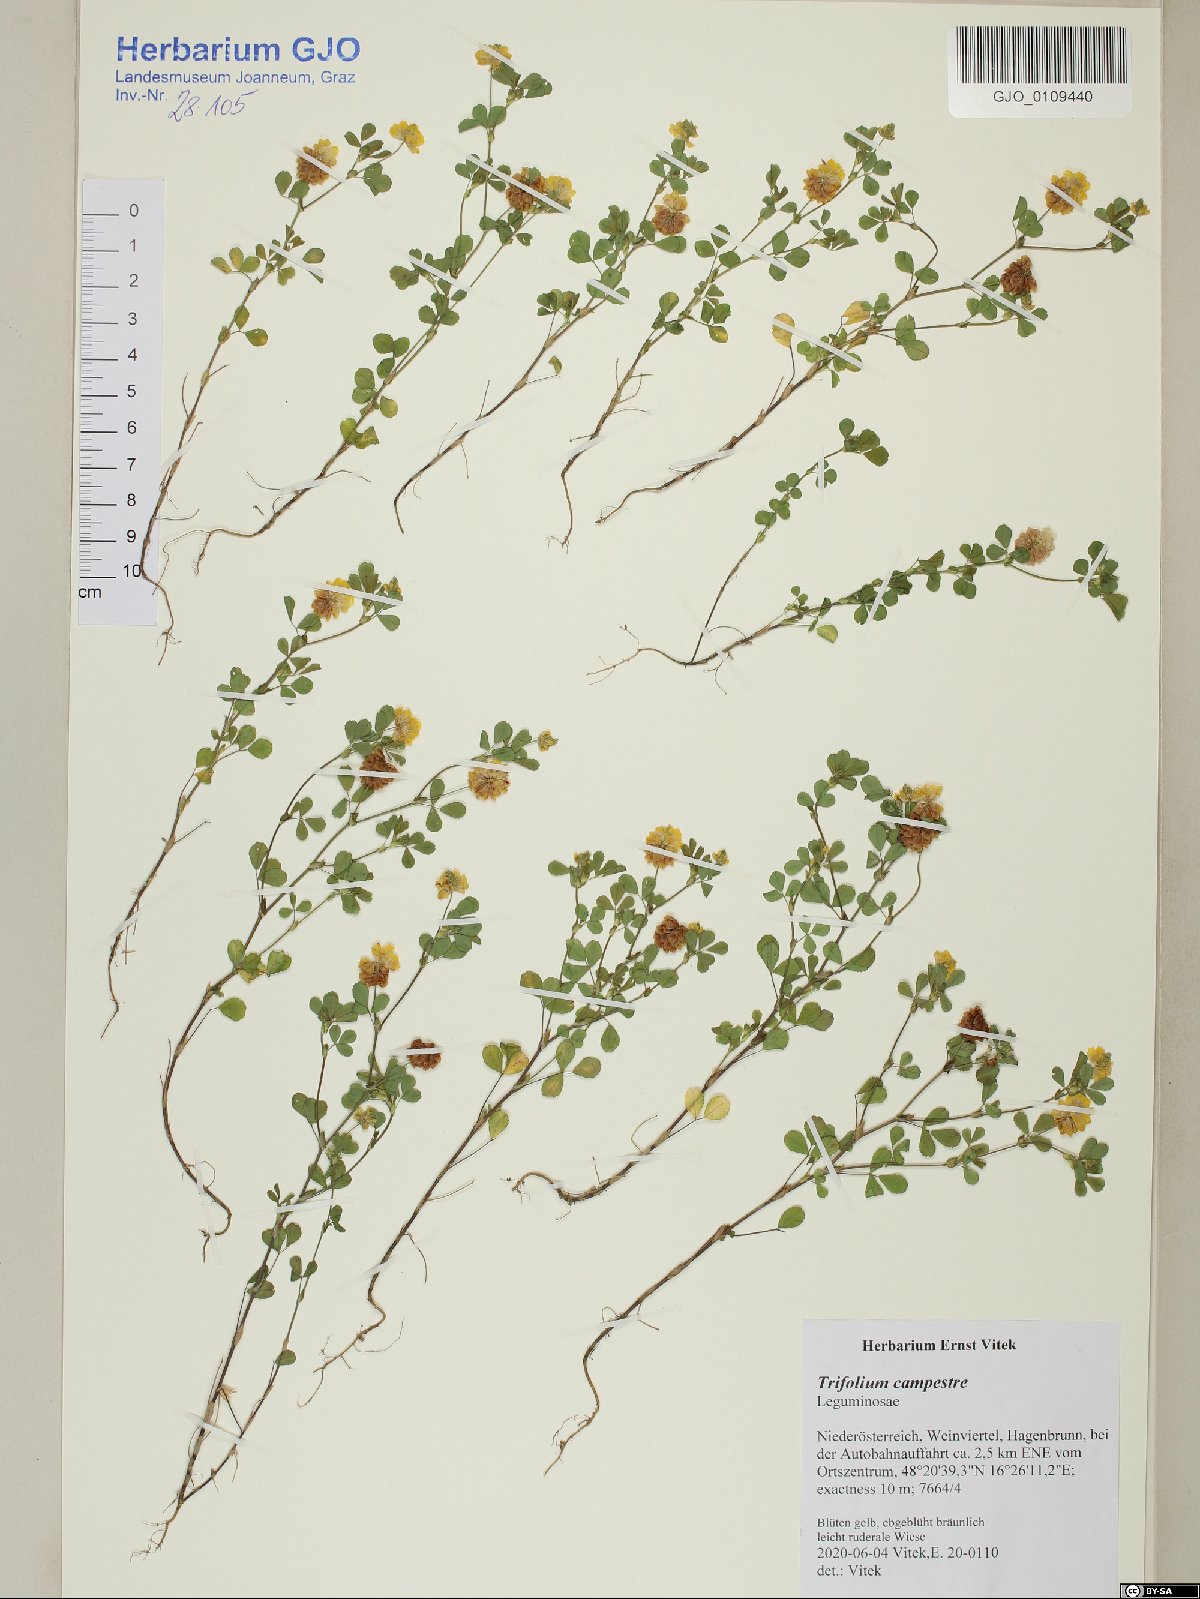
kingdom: Plantae
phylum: Tracheophyta
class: Magnoliopsida
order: Fabales
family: Fabaceae
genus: Trifolium
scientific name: Trifolium campestre
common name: Field clover
